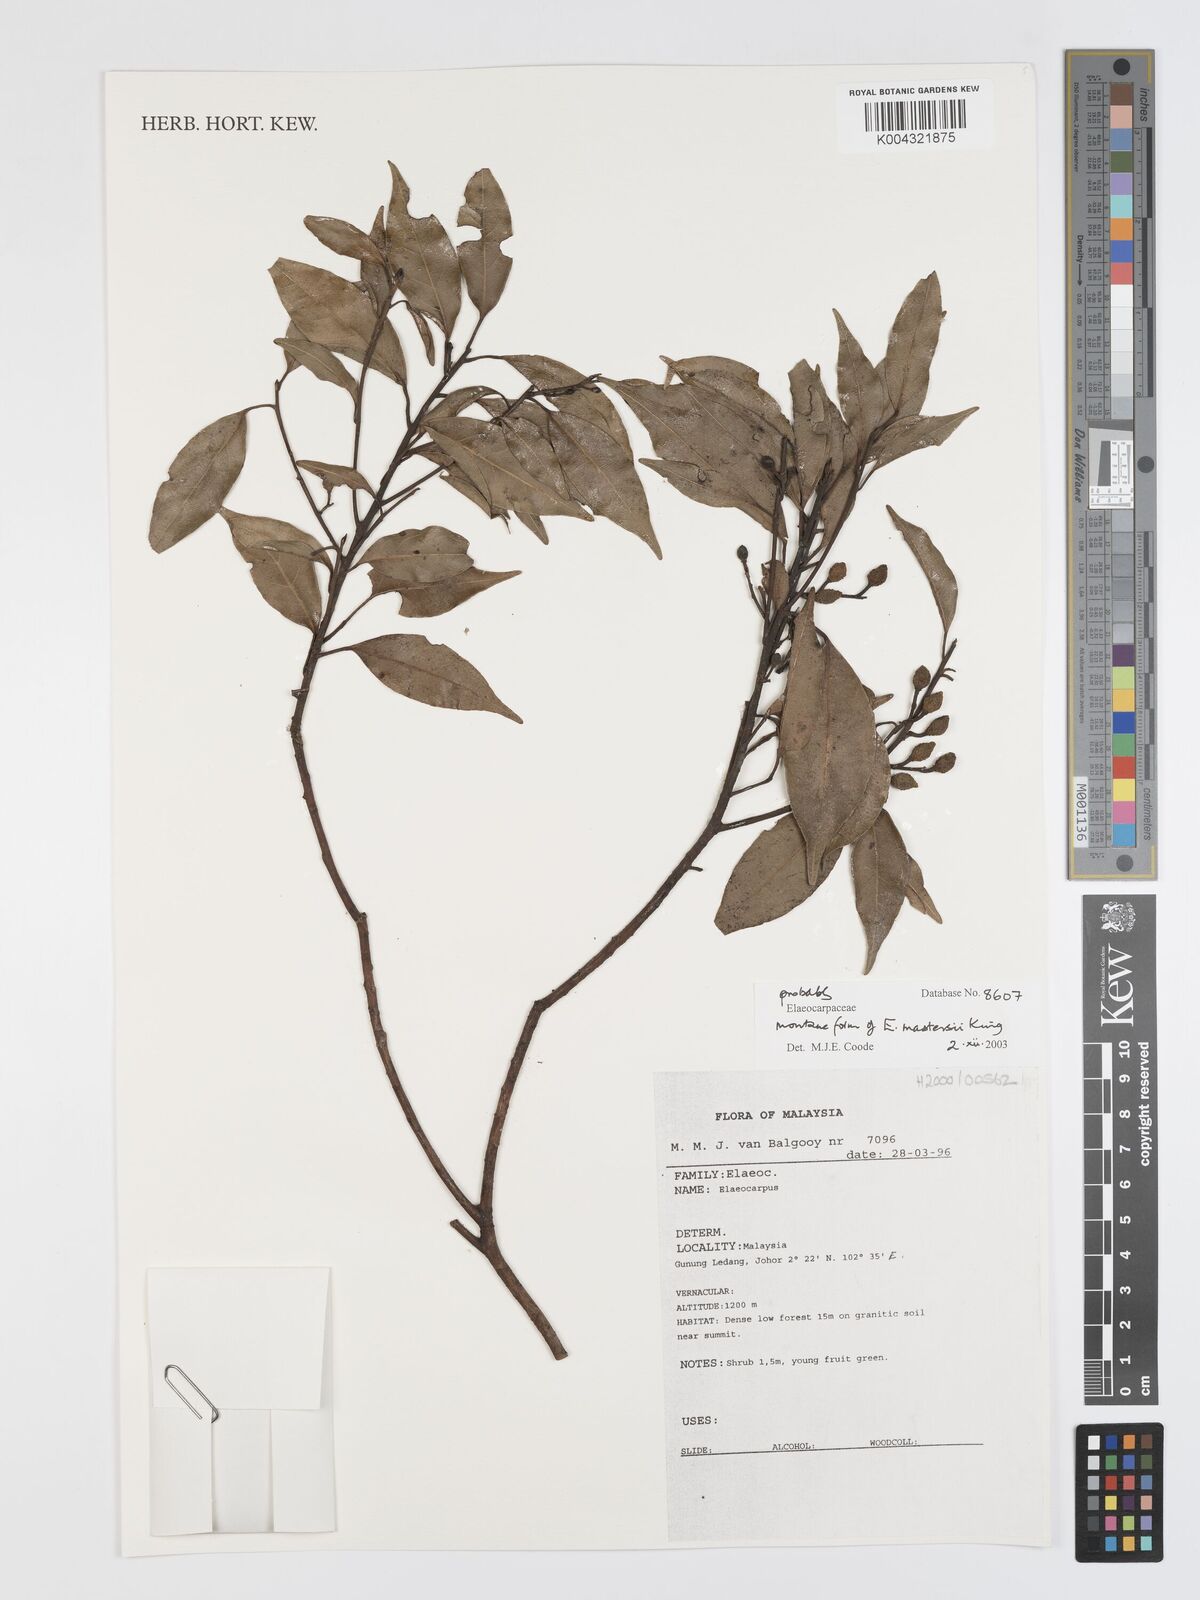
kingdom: Plantae
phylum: Tracheophyta
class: Magnoliopsida
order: Oxalidales
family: Elaeocarpaceae
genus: Elaeocarpus
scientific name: Elaeocarpus mastersii
